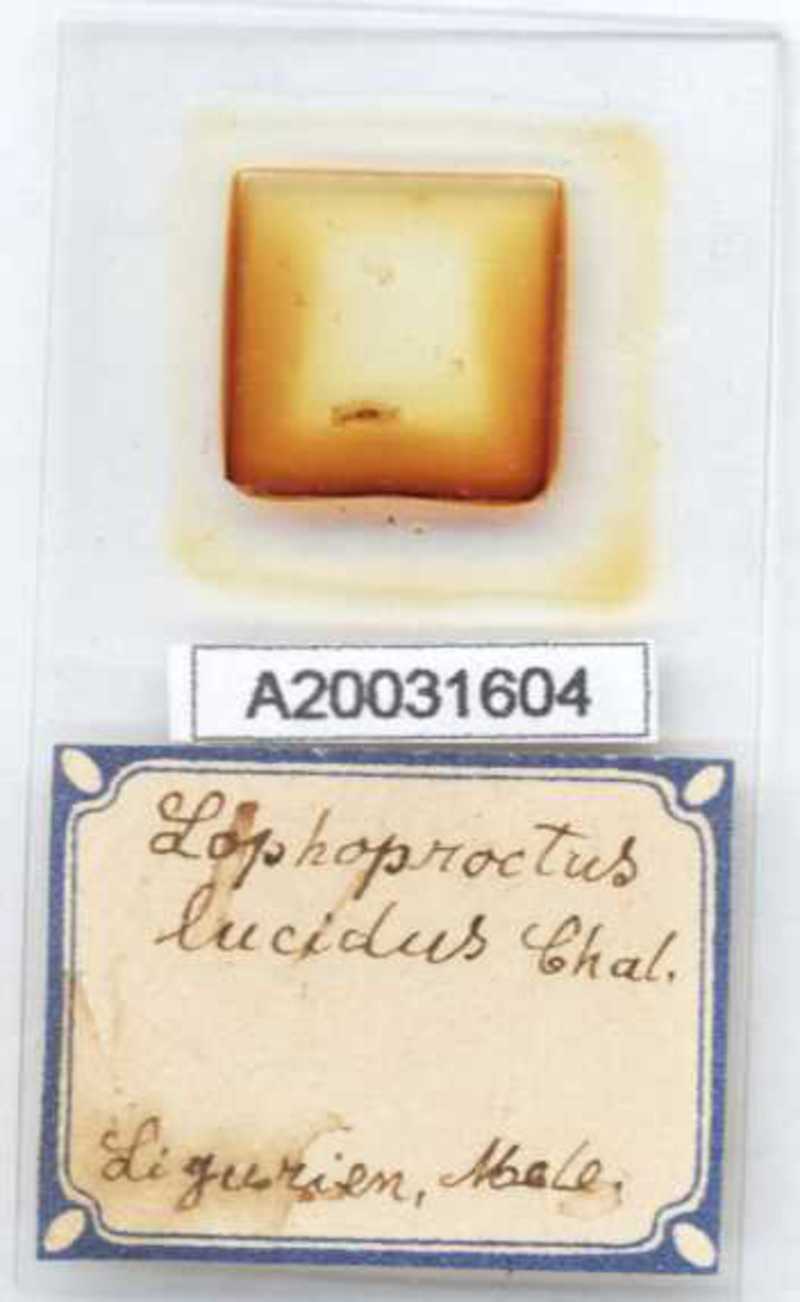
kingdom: Animalia
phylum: Arthropoda
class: Diplopoda
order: Polyxenida
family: Lophoproctidae
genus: Lophoproctus
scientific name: Lophoproctus lucidus
